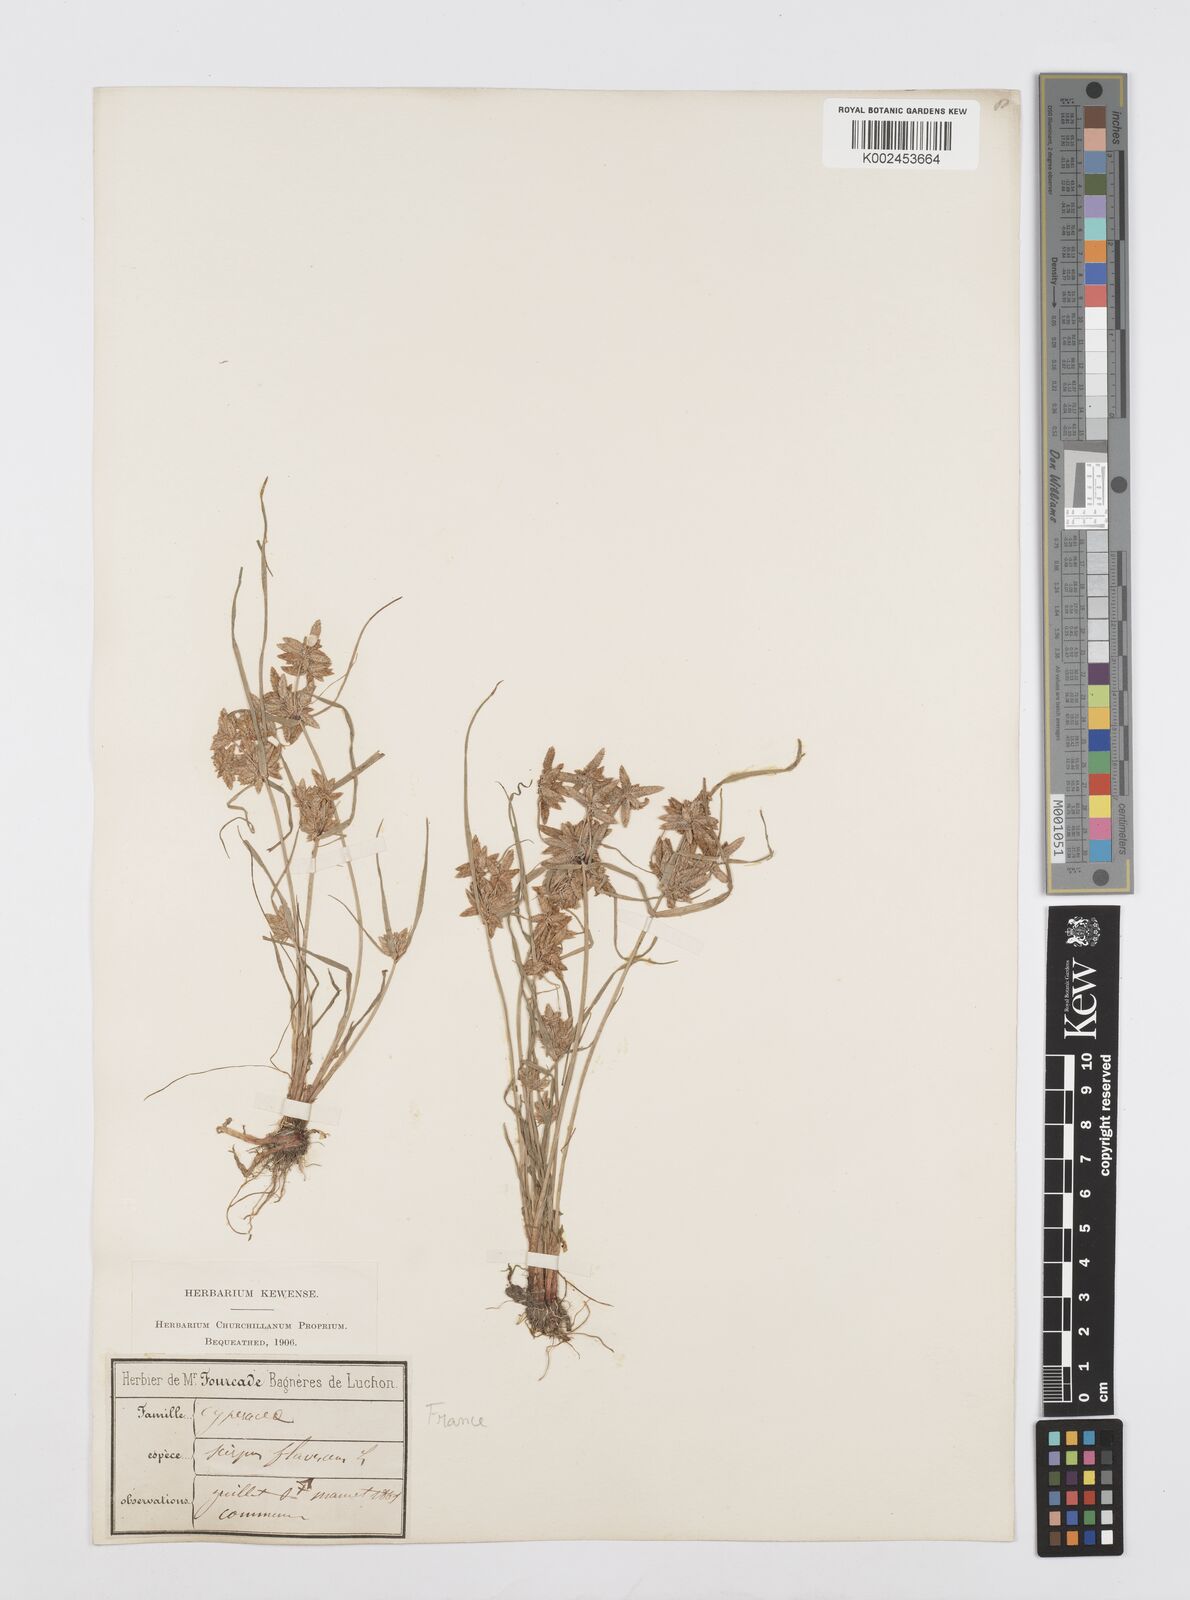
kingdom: Plantae
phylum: Tracheophyta
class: Liliopsida
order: Poales
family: Cyperaceae
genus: Cyperus
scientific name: Cyperus flavescens
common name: Yellow galingale
